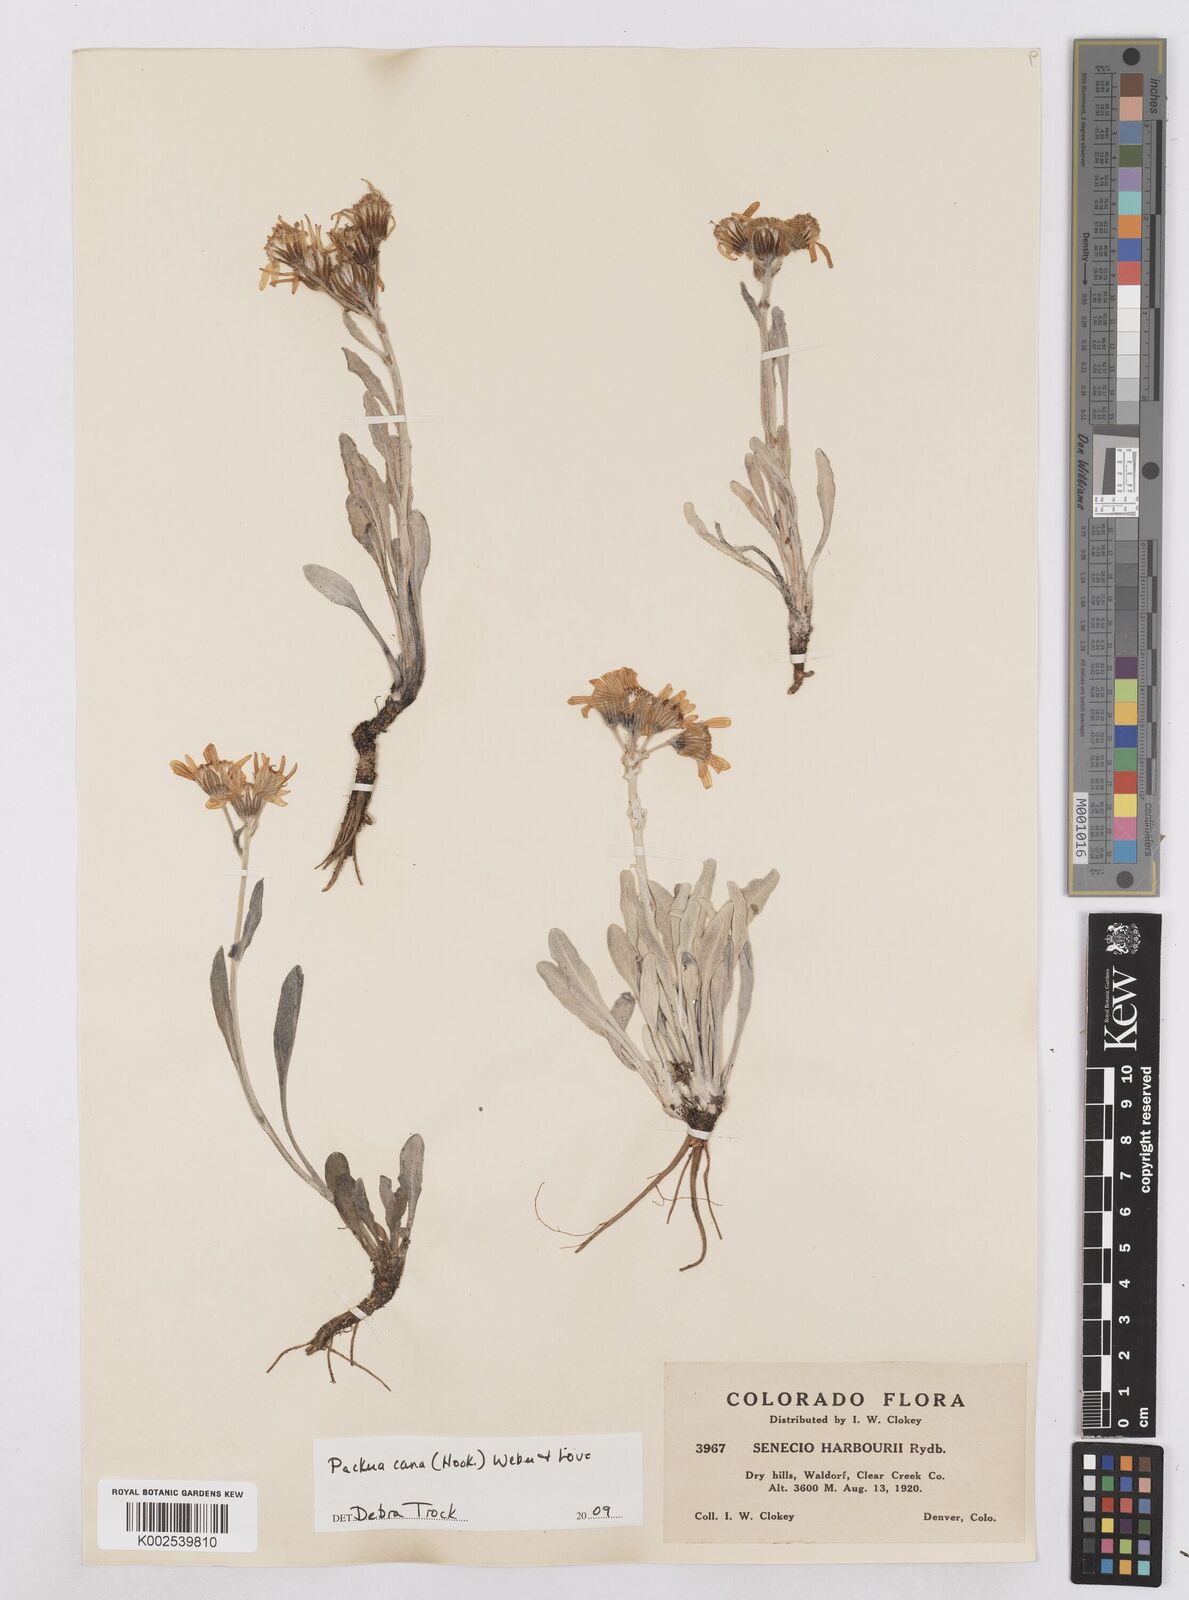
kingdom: Plantae
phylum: Tracheophyta
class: Magnoliopsida
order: Asterales
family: Asteraceae
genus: Packera
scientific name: Packera cana
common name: Woolly groundsel
